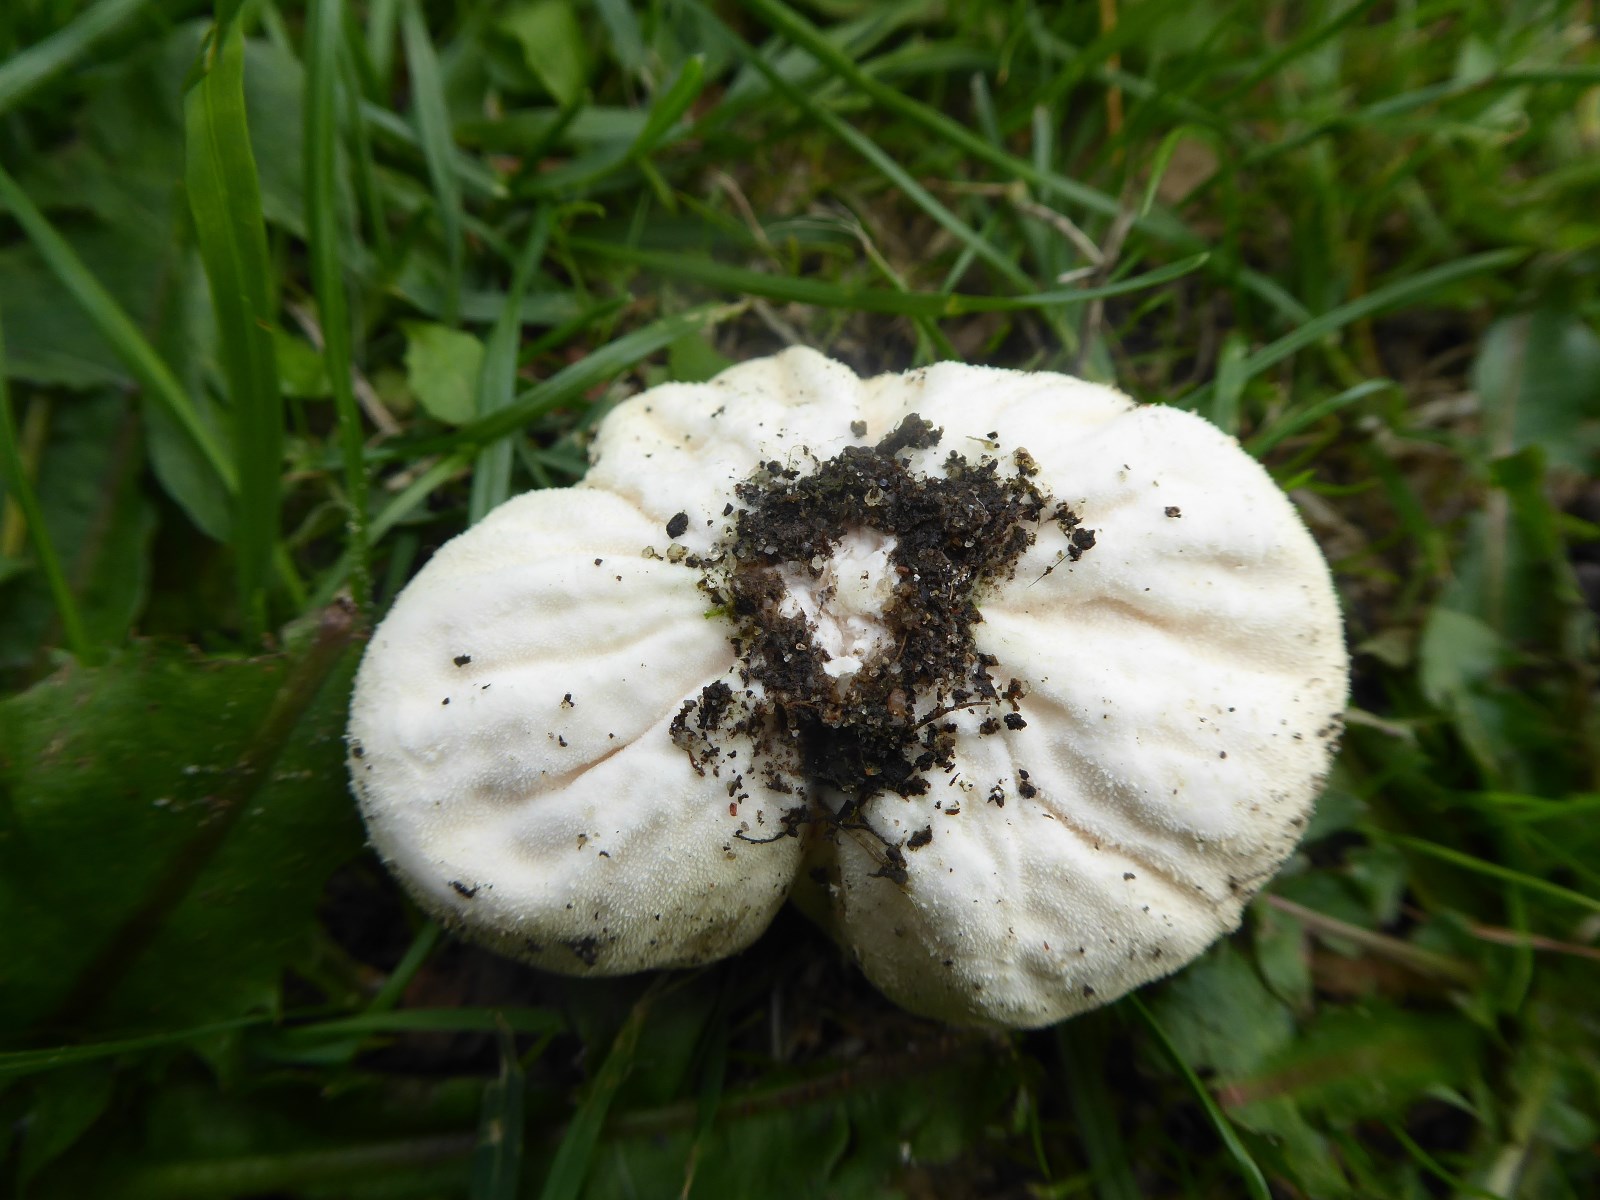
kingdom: Fungi
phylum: Basidiomycota
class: Agaricomycetes
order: Agaricales
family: Lycoperdaceae
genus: Lycoperdon
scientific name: Lycoperdon pratense
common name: flad støvbold
